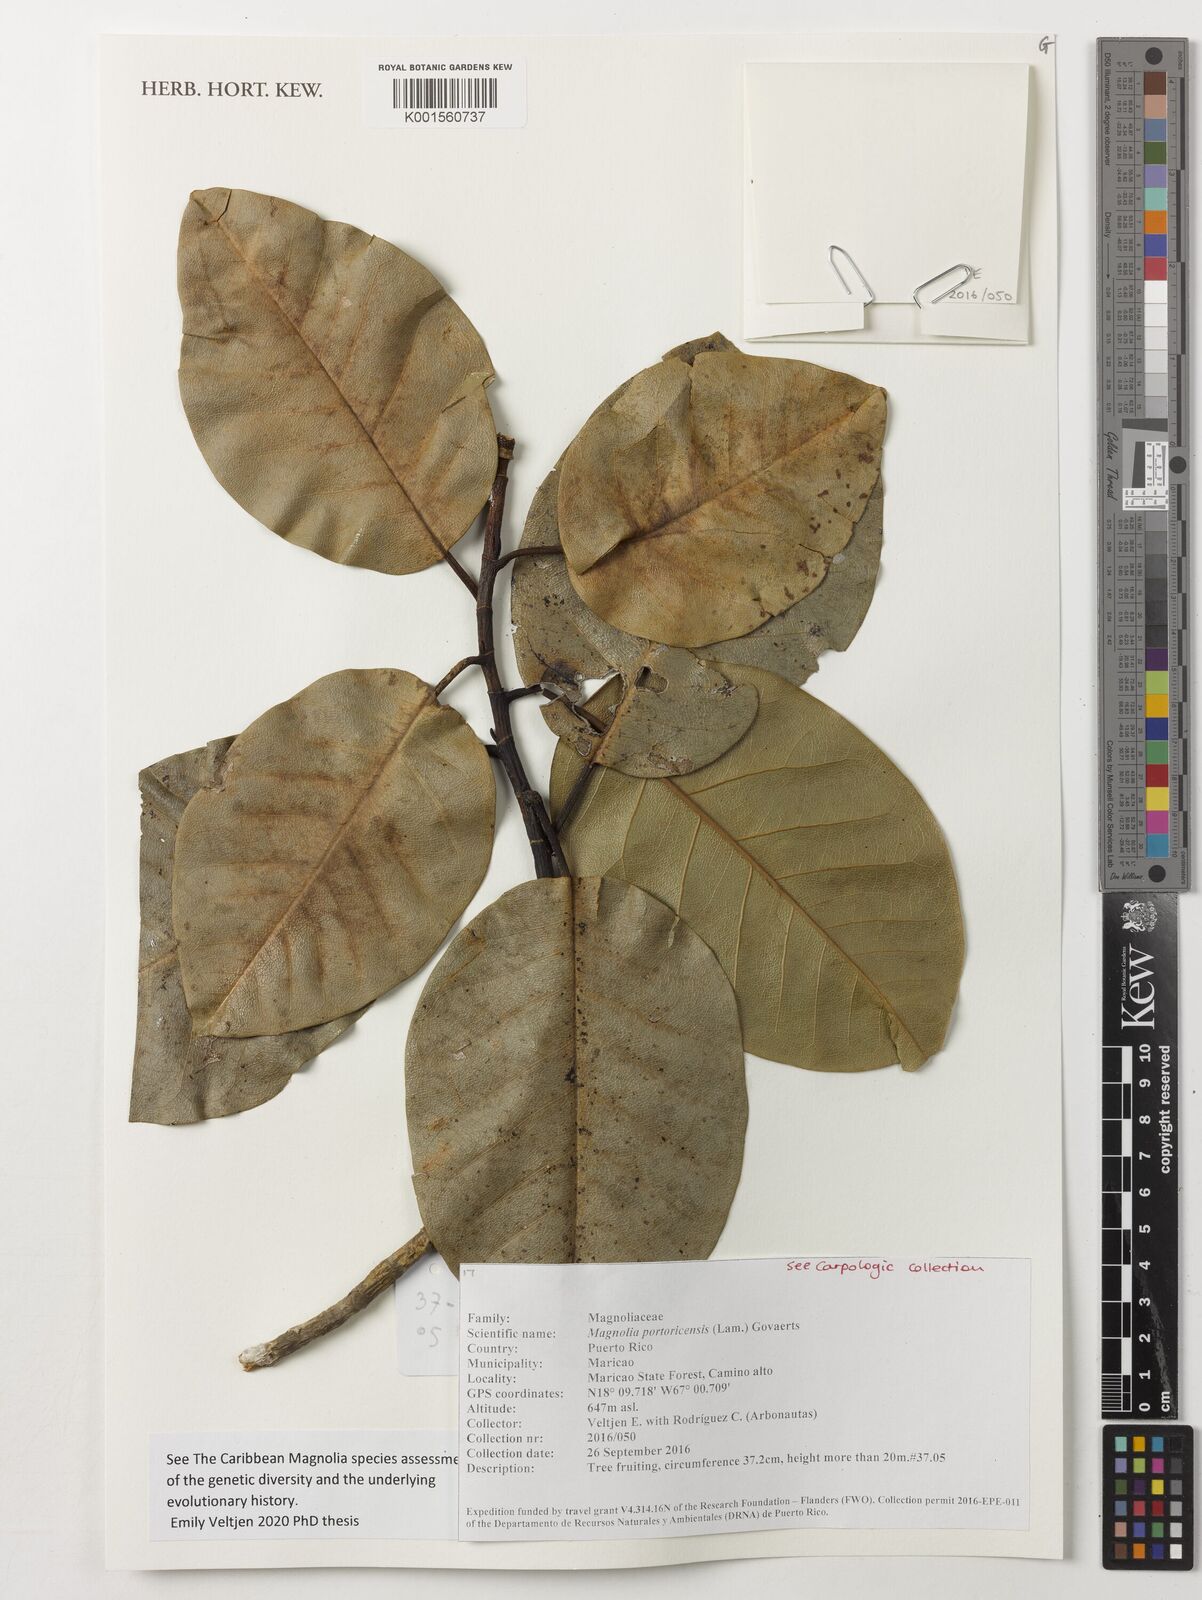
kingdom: Plantae
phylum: Tracheophyta
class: Magnoliopsida
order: Magnoliales
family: Magnoliaceae
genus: Magnolia
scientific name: Magnolia portoricensis
